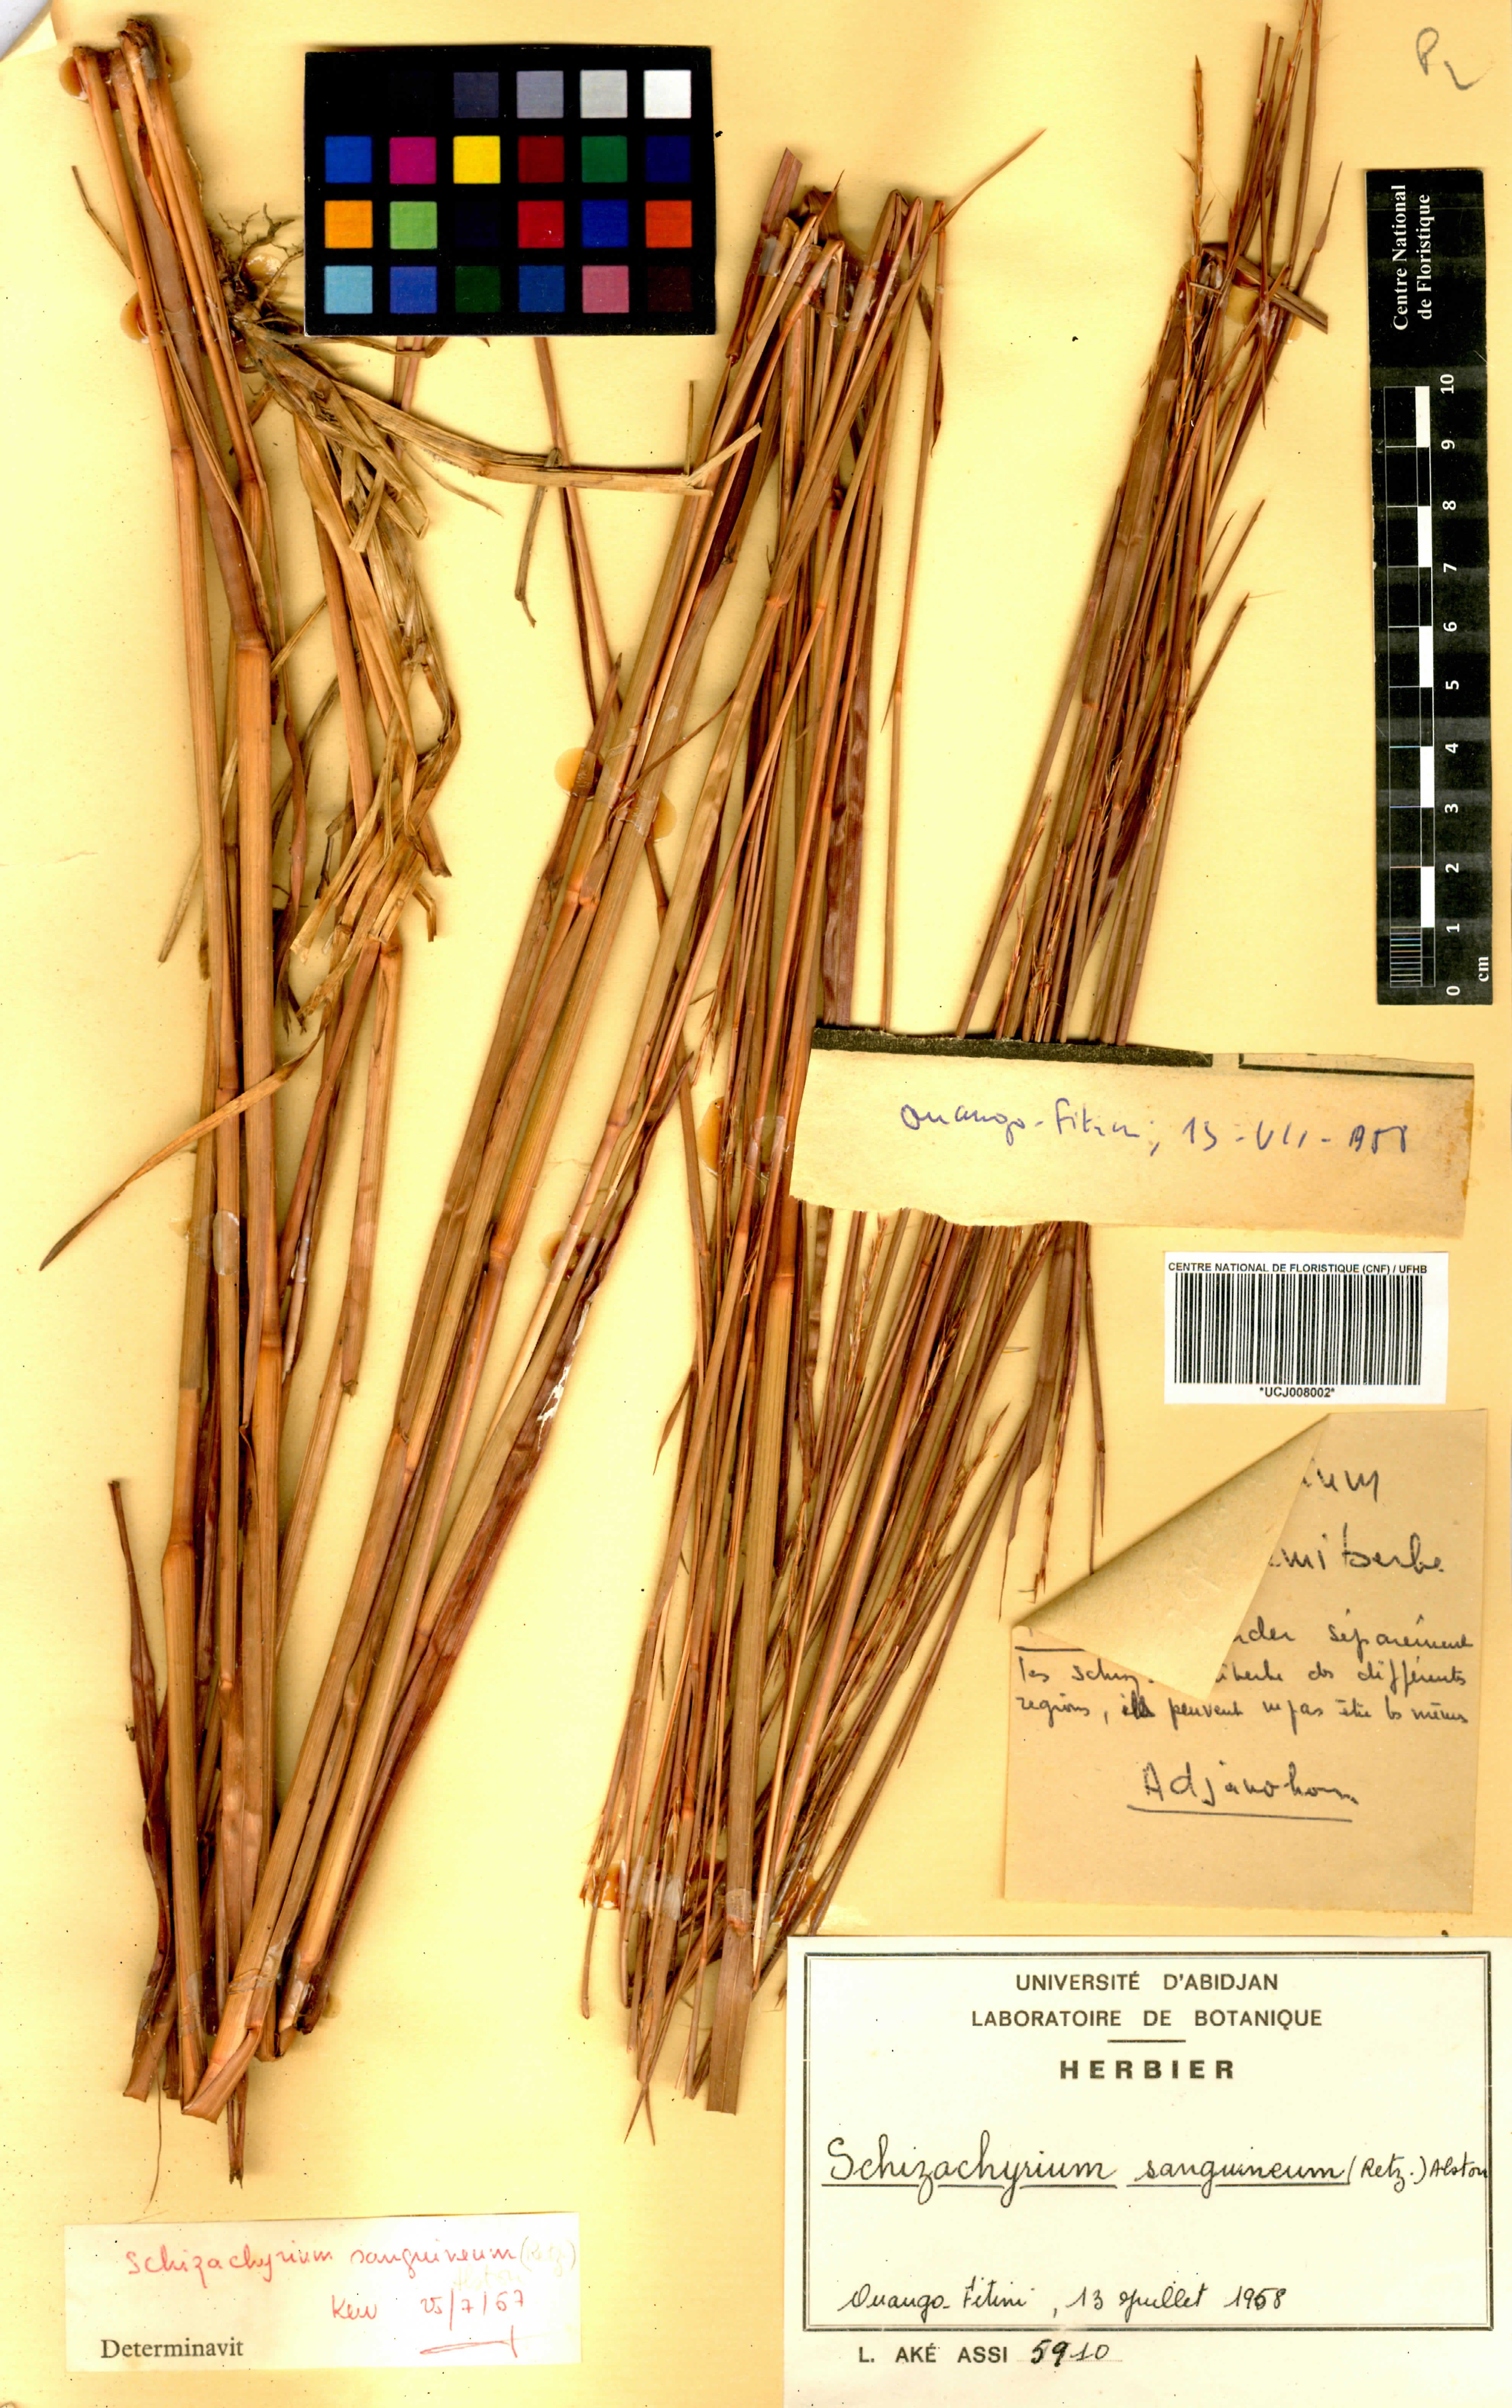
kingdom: Plantae
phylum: Tracheophyta
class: Liliopsida
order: Poales
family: Poaceae
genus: Schizachyrium
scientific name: Schizachyrium sanguineum
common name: Crimson bluestem
